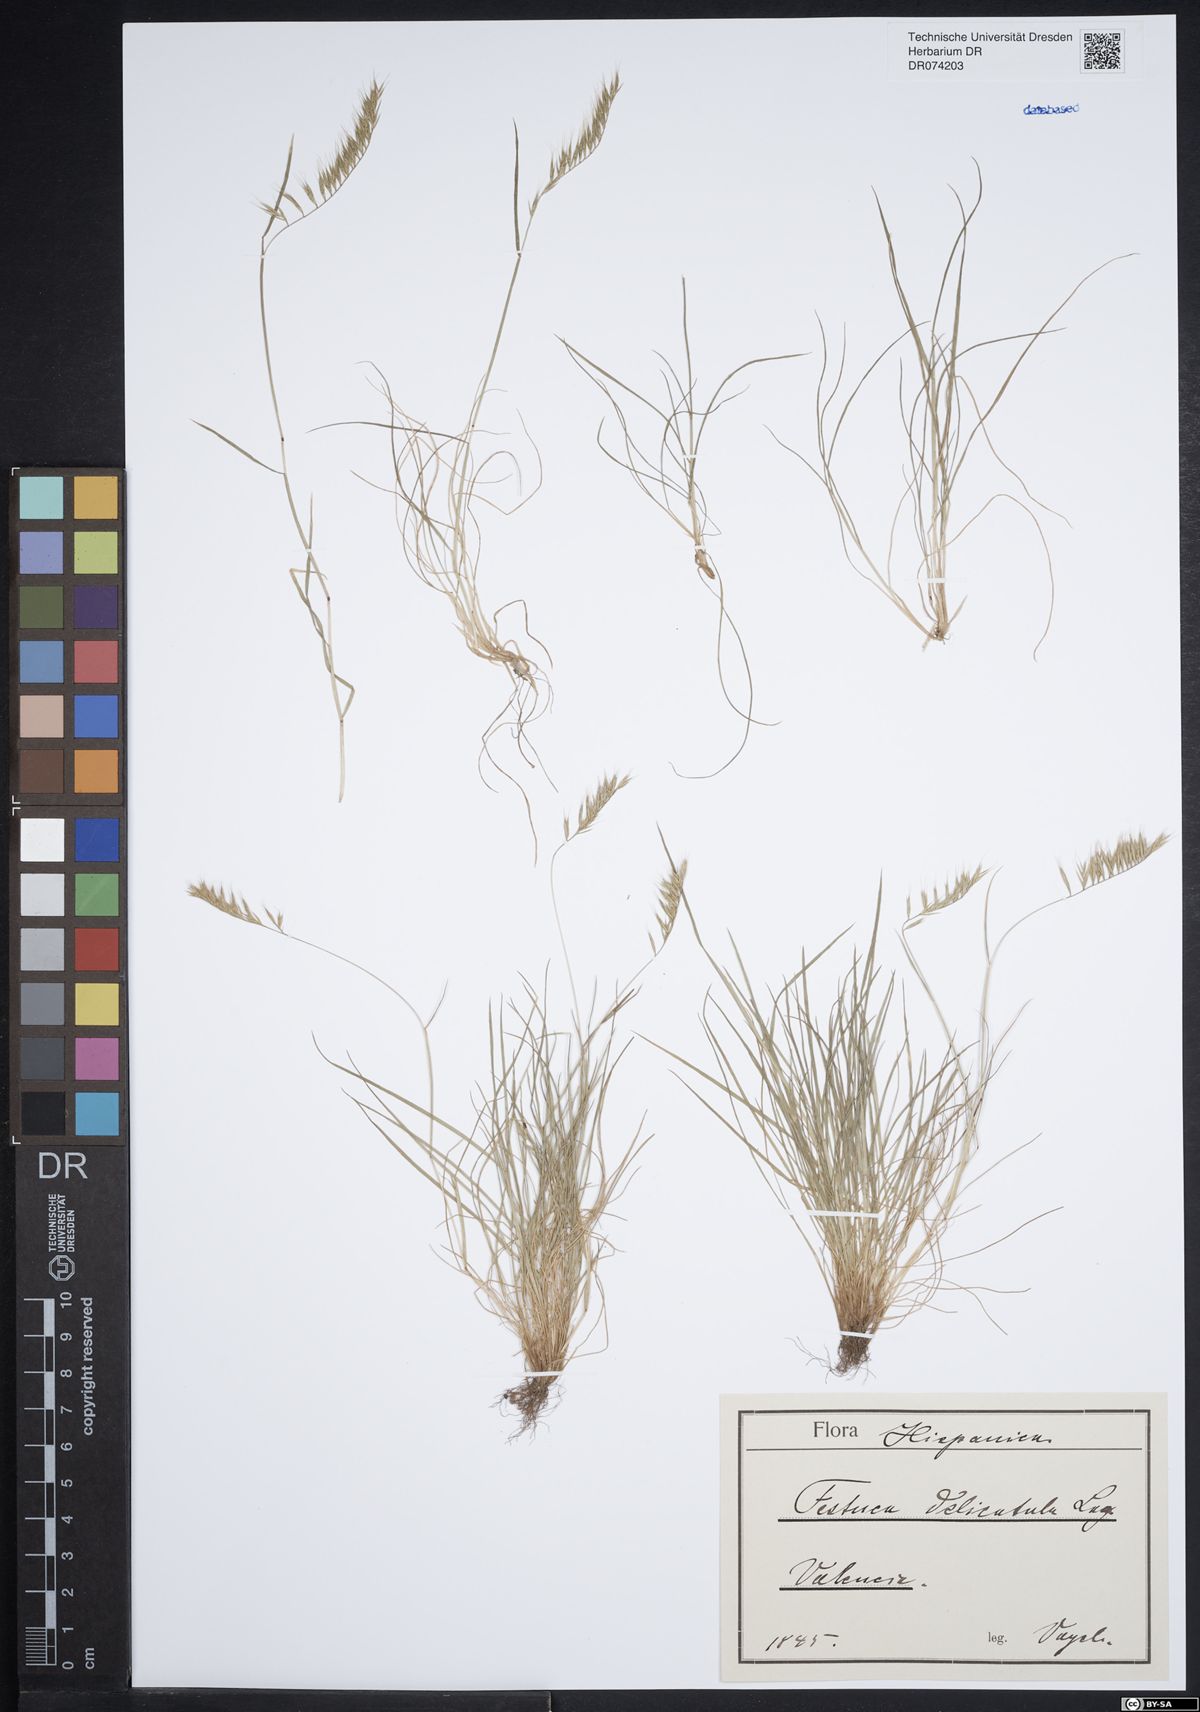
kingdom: Plantae
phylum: Tracheophyta
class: Liliopsida
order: Poales
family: Poaceae
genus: Festuca
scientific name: Festuca delicatula
